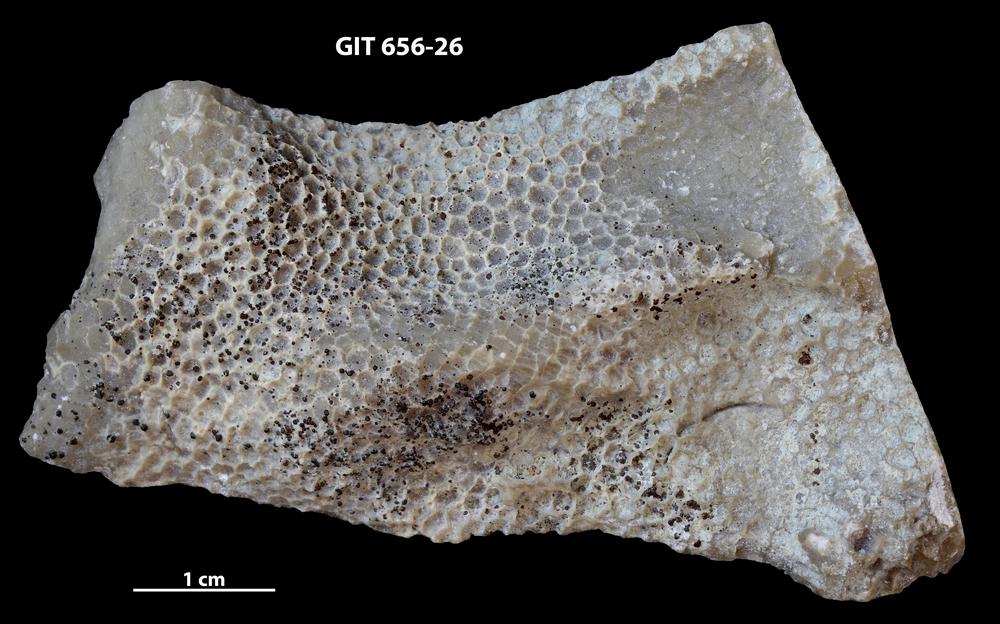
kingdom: Animalia
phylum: Cnidaria
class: Anthozoa
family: Favositidae
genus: Favosites
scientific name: Favosites
